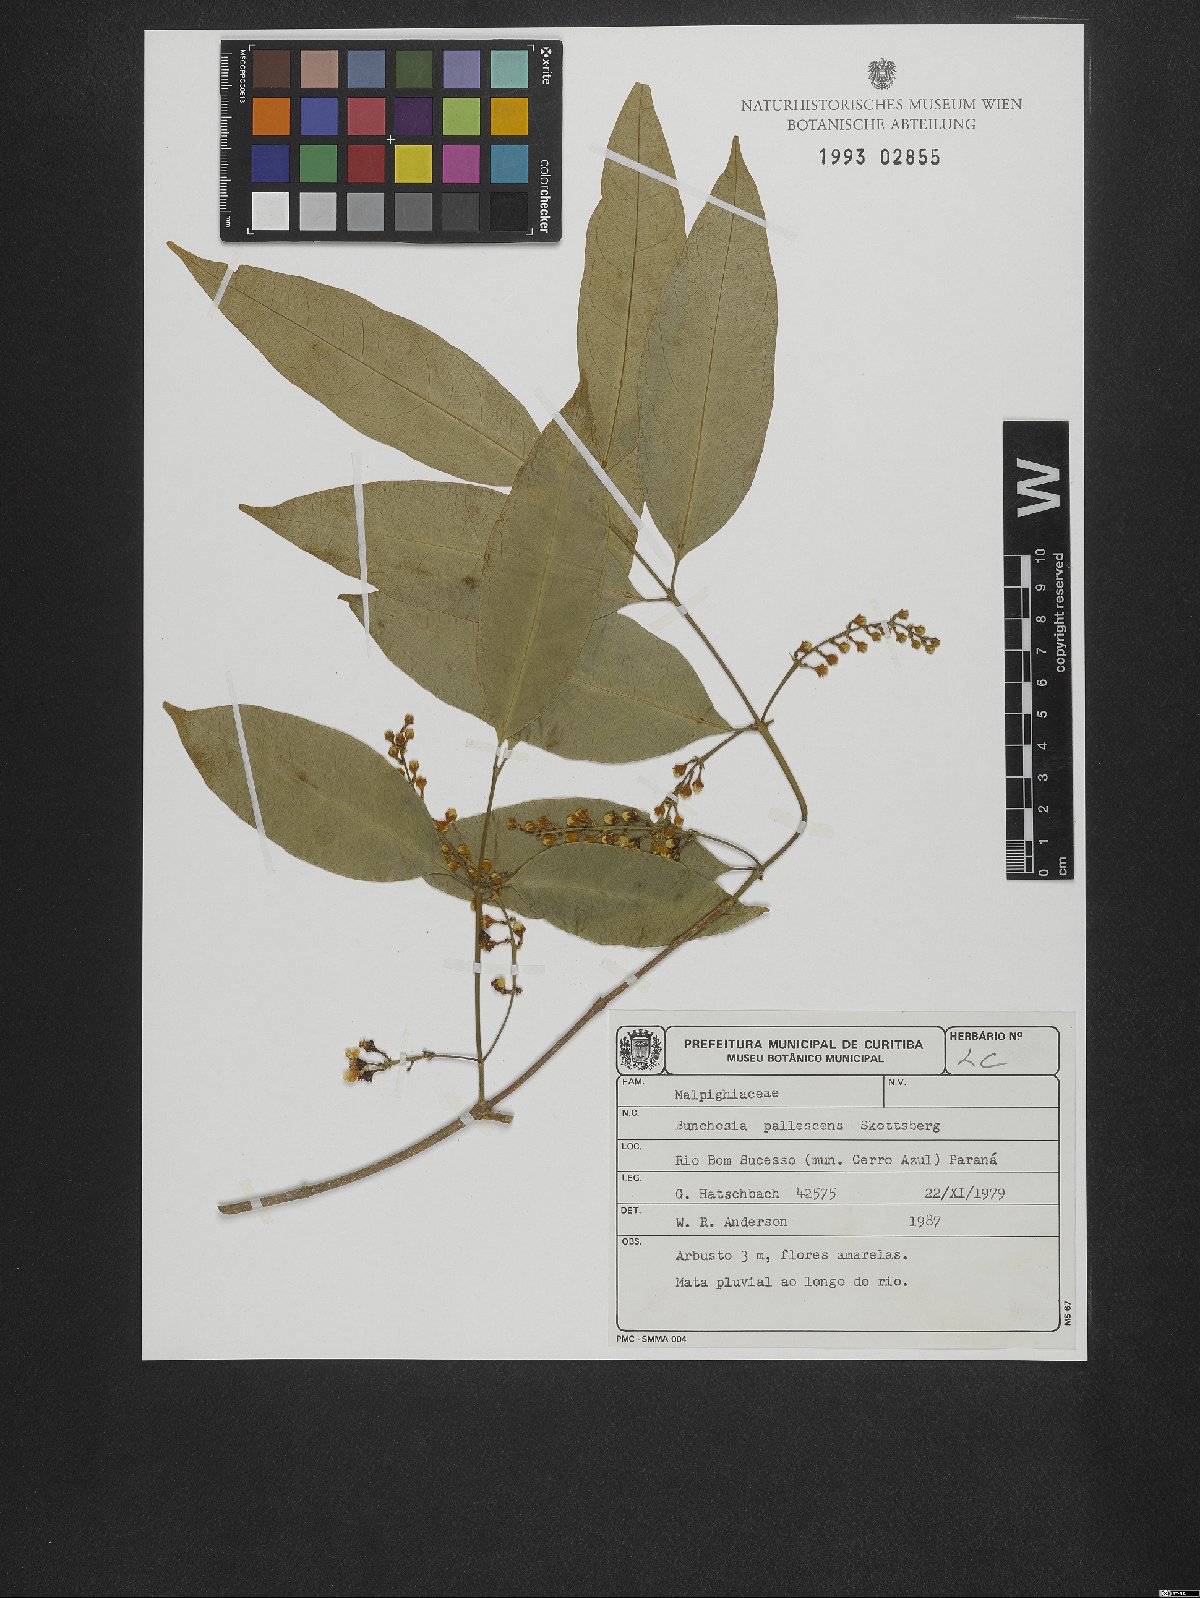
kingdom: Plantae
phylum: Tracheophyta
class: Magnoliopsida
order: Malpighiales
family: Malpighiaceae
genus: Bunchosia
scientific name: Bunchosia pallescens
